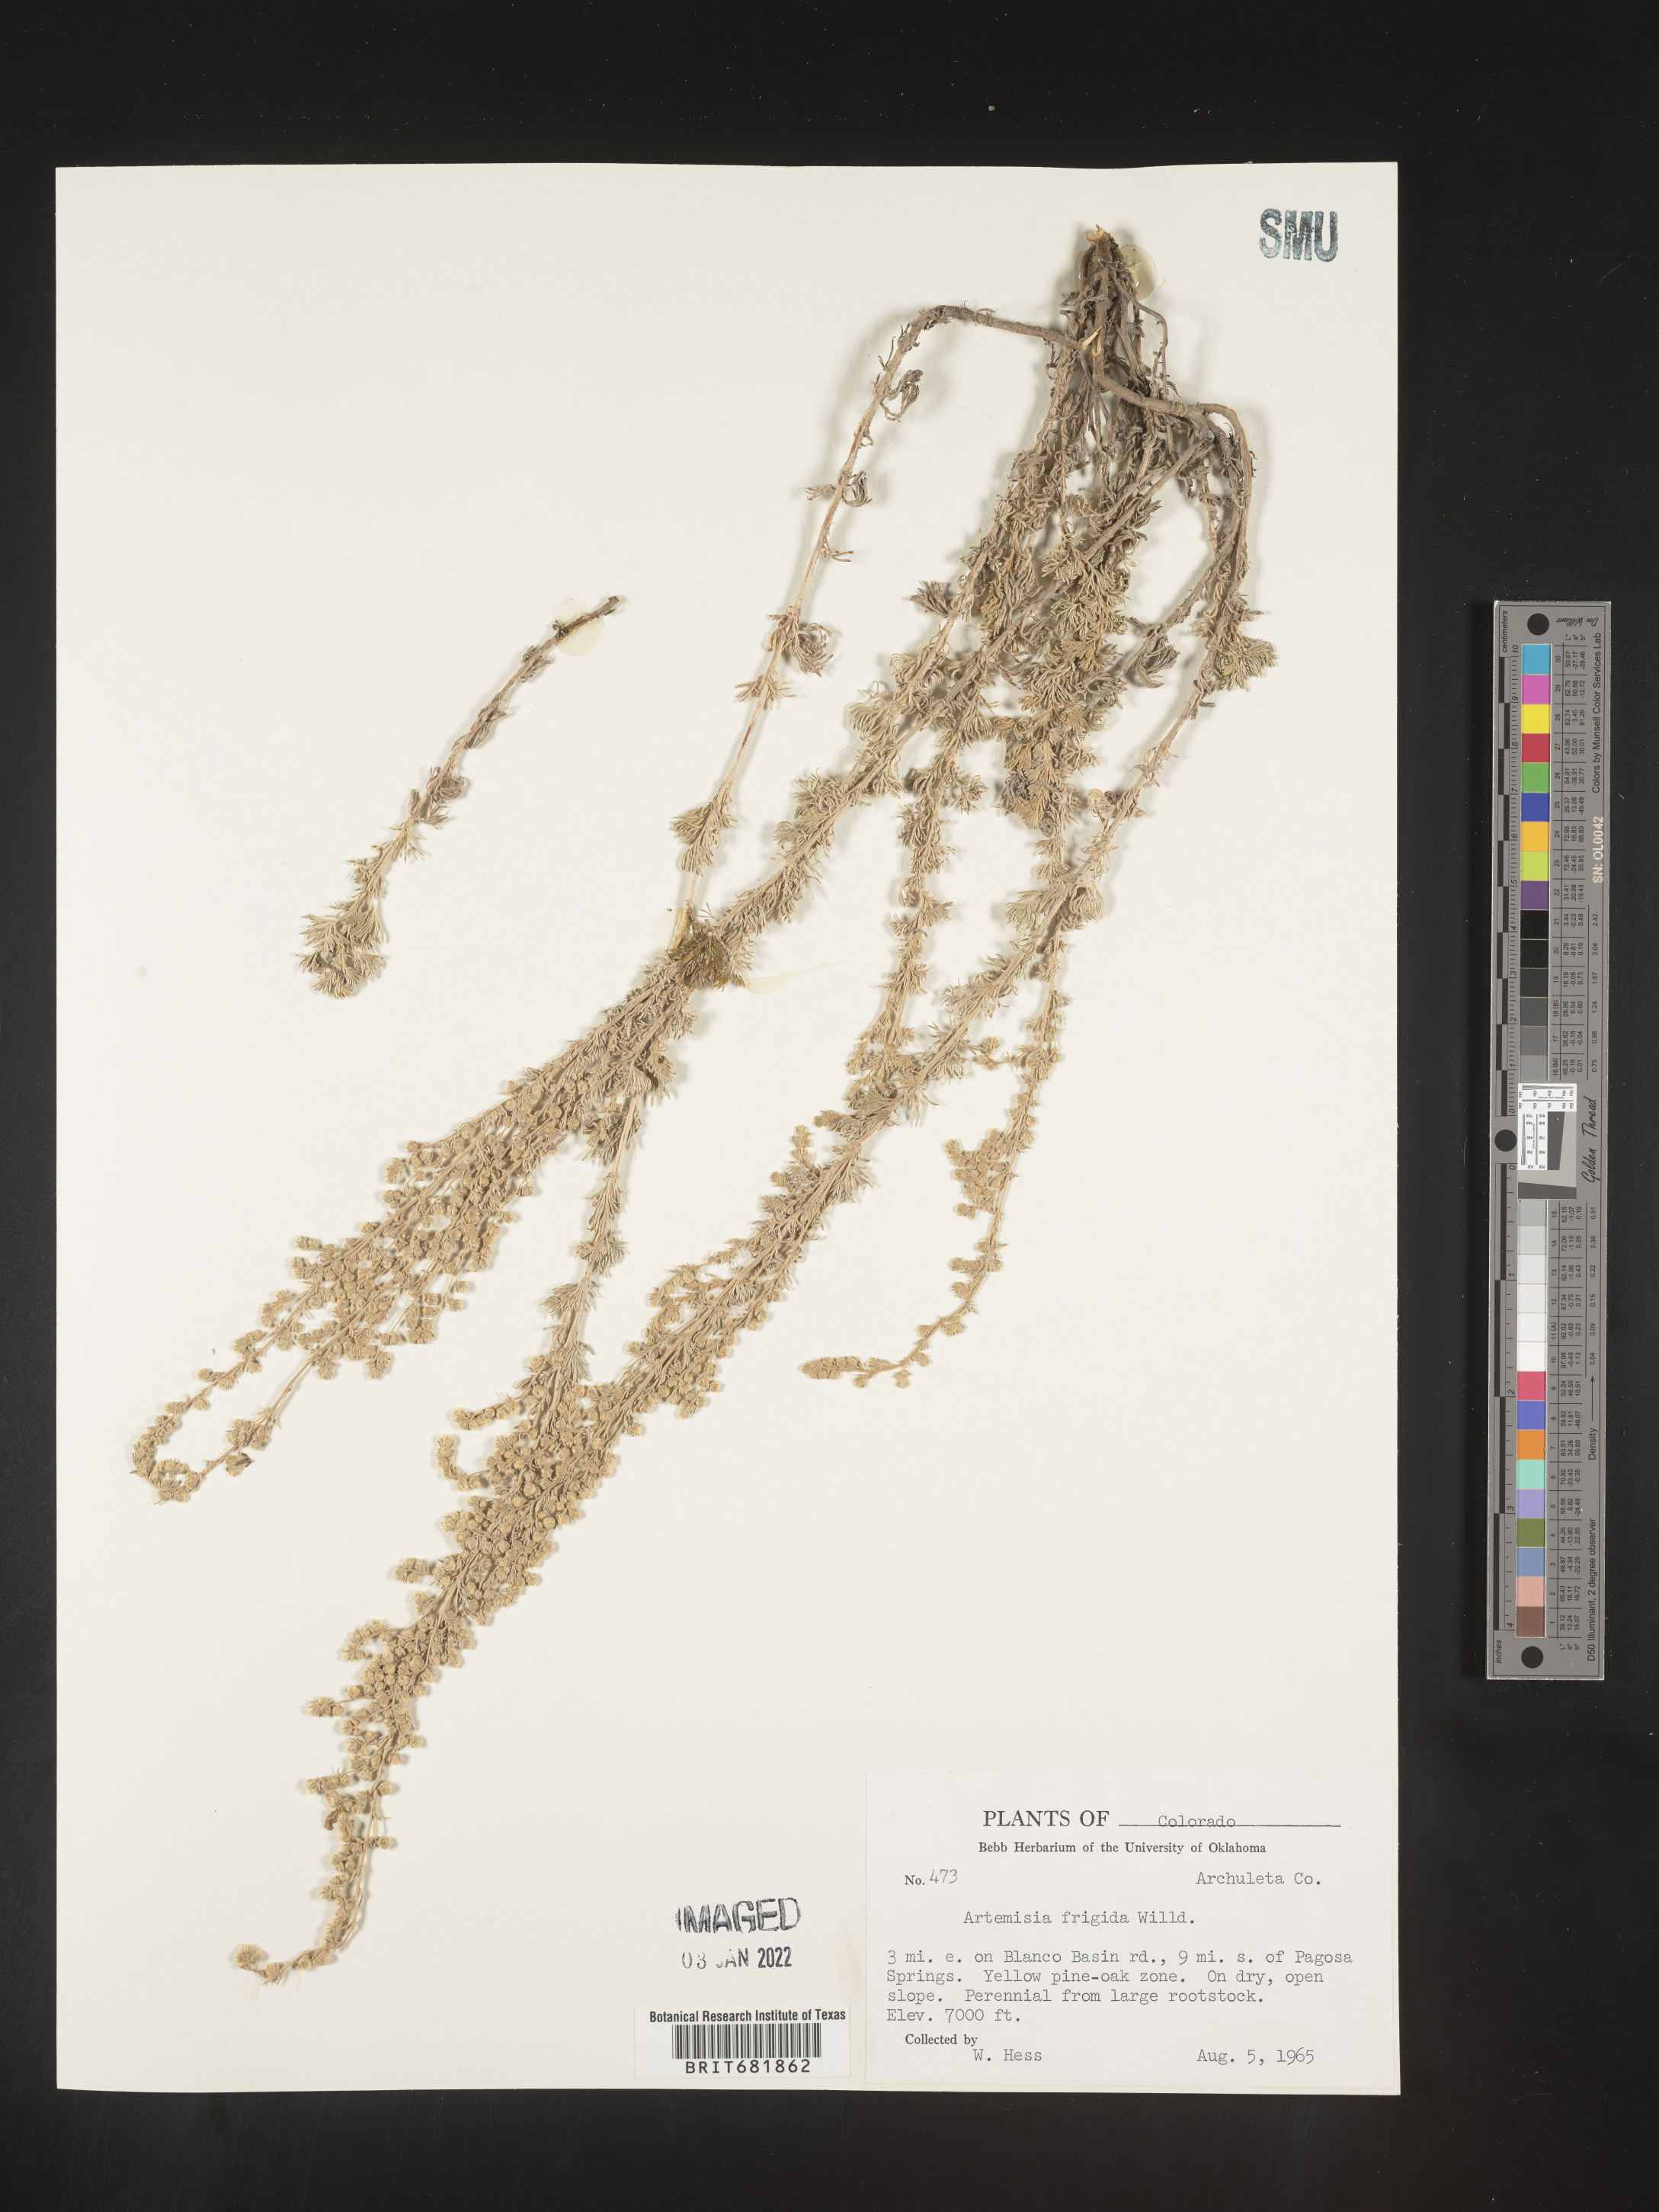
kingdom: Plantae
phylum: Tracheophyta
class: Magnoliopsida
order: Asterales
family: Asteraceae
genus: Artemisia
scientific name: Artemisia frigida
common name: Prairie sagewort
